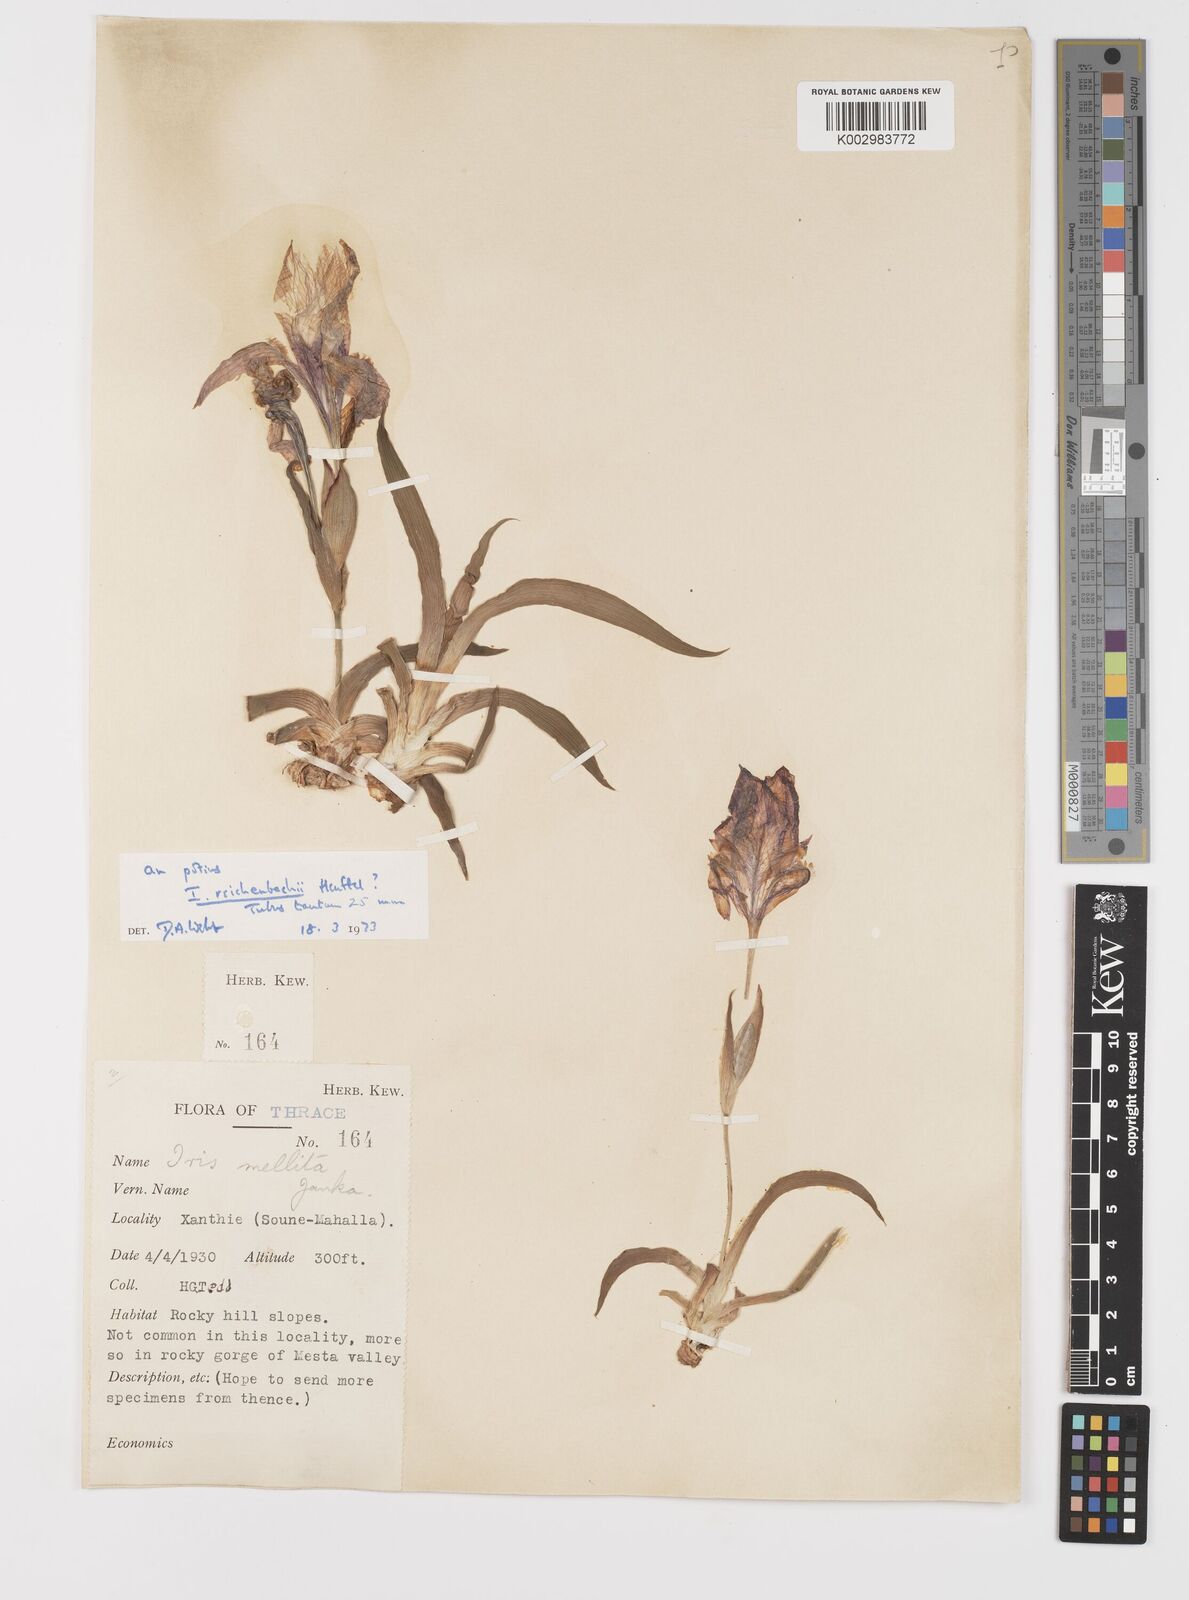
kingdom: Plantae
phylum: Tracheophyta
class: Liliopsida
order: Asparagales
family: Iridaceae
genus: Iris
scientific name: Iris reichenbachii
